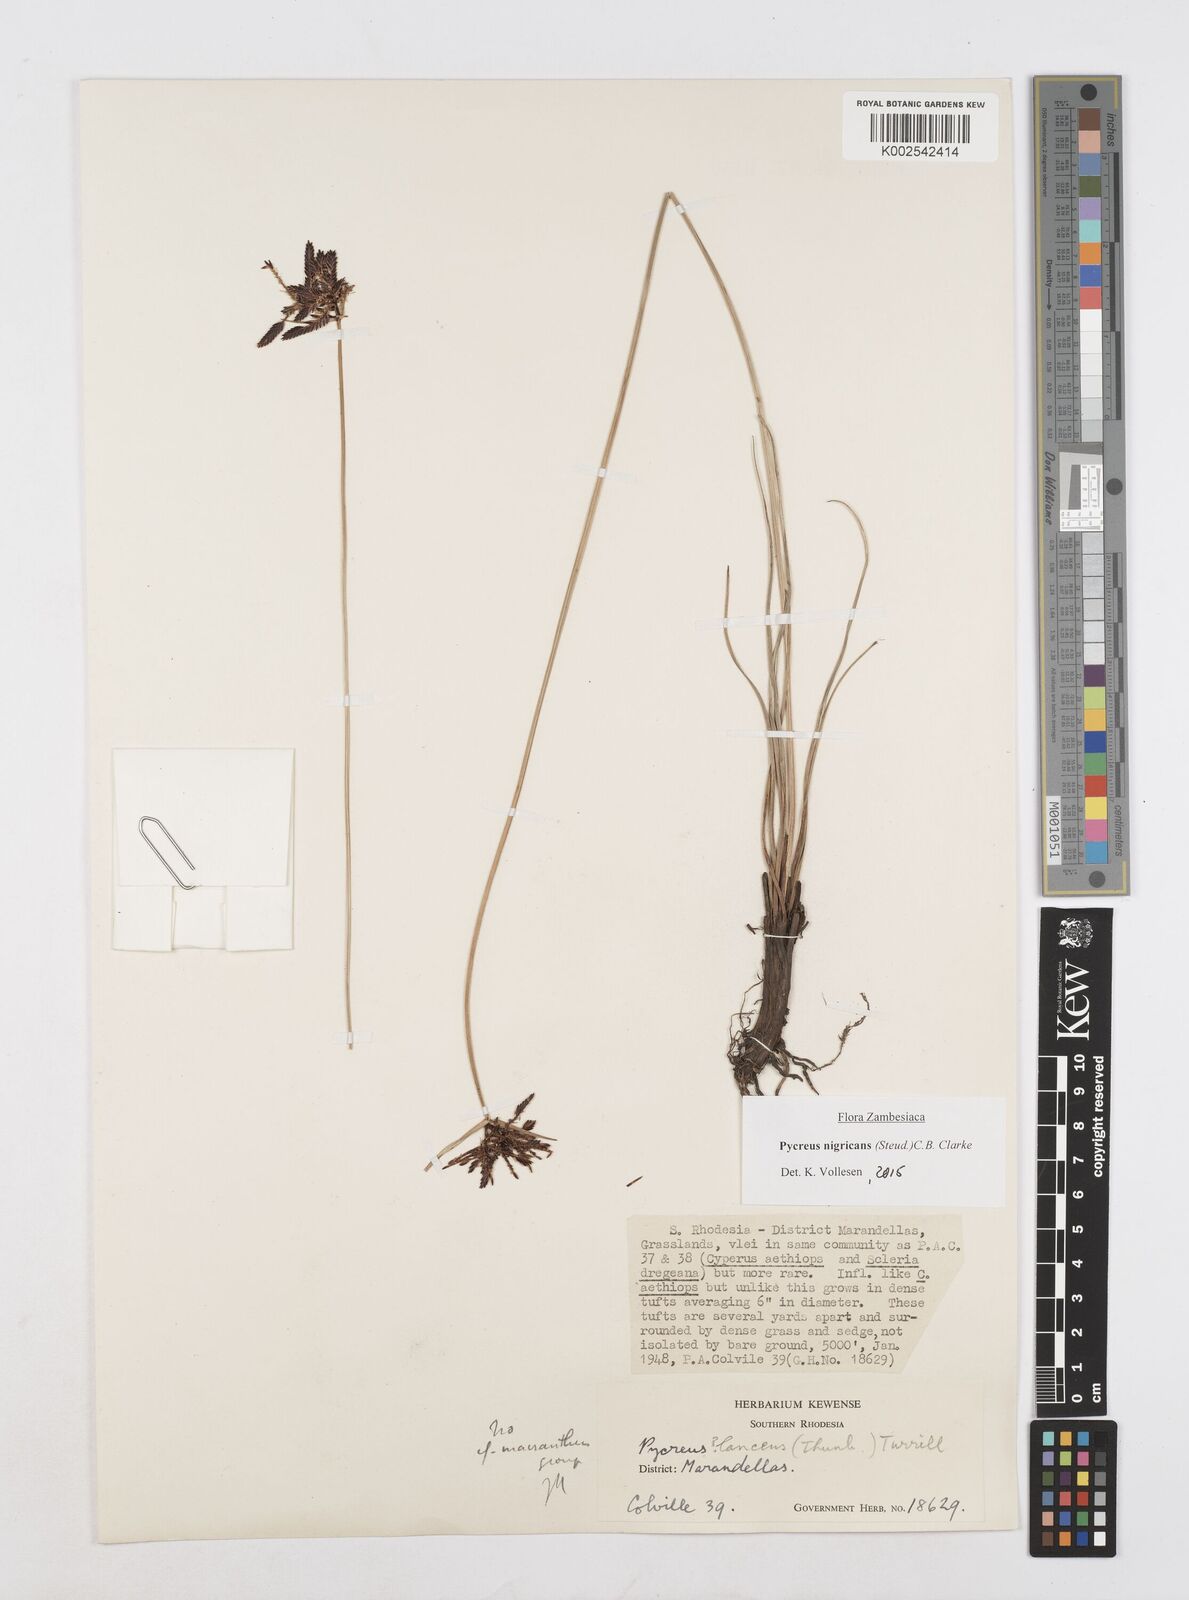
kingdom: Plantae
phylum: Tracheophyta
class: Liliopsida
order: Poales
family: Cyperaceae
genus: Cyperus
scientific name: Cyperus nigricans
